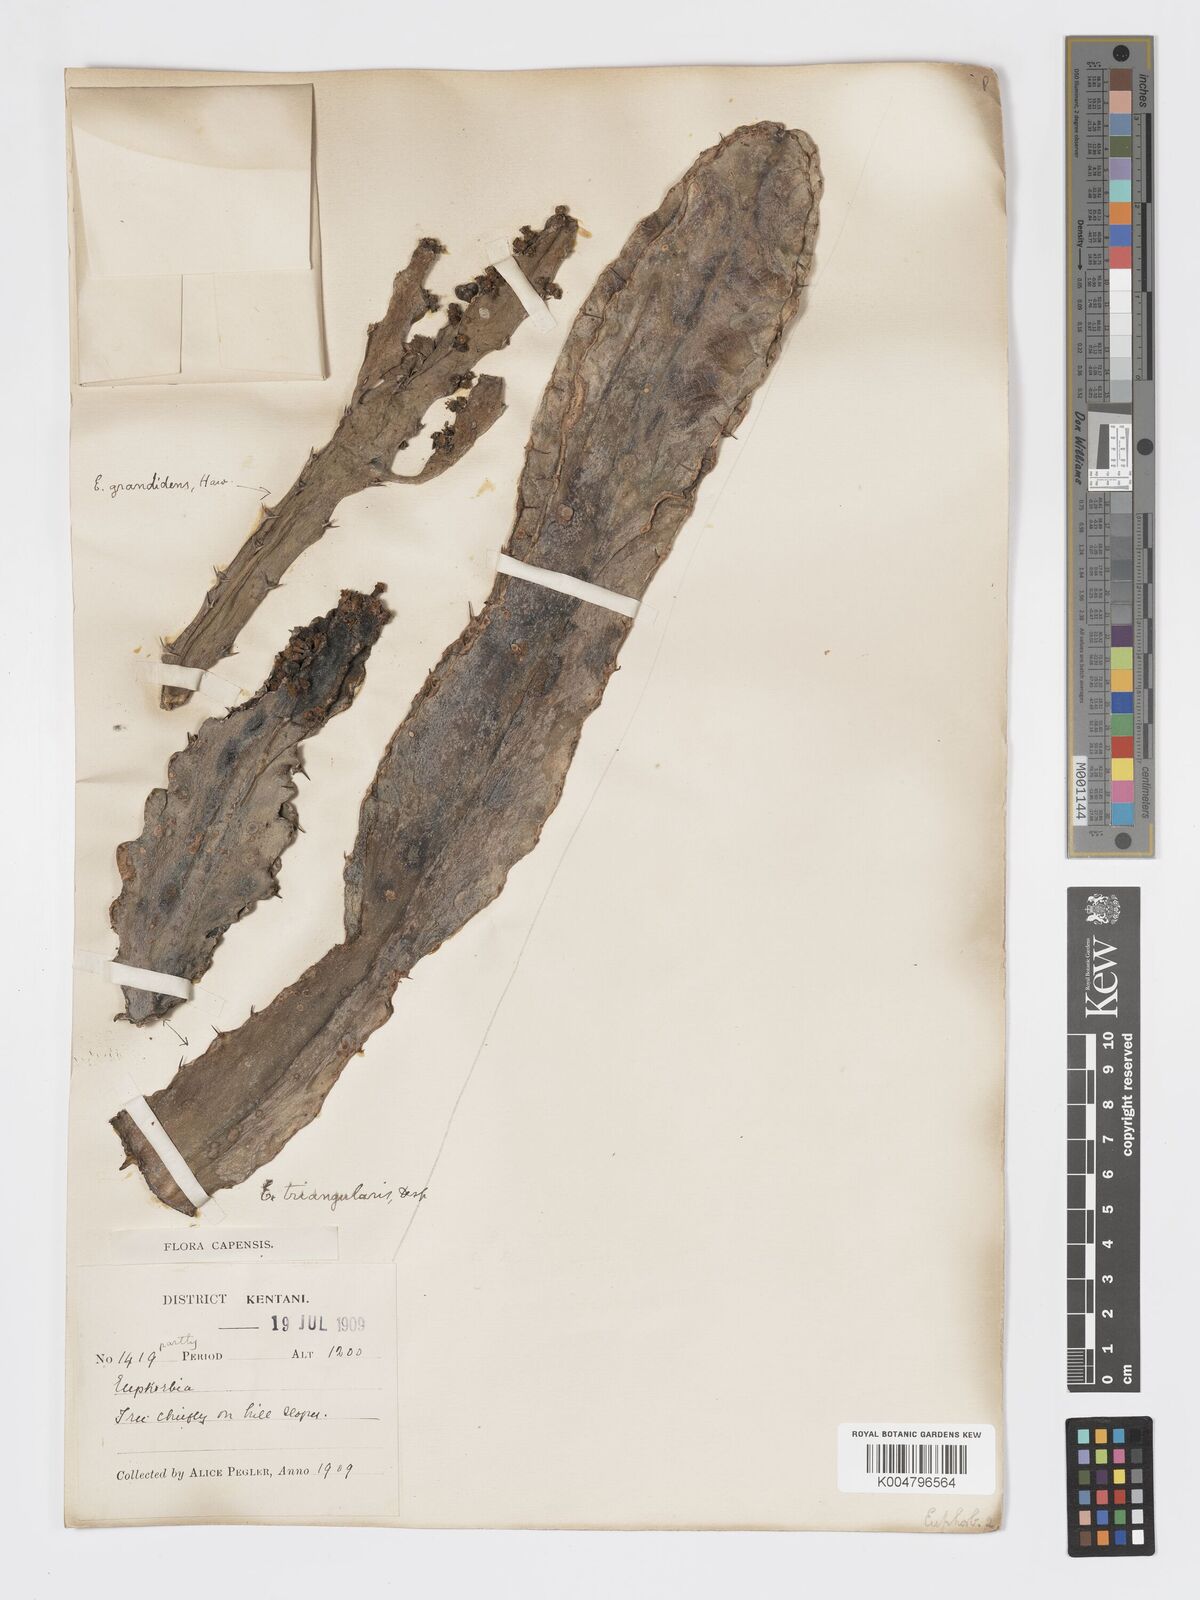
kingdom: Plantae
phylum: Tracheophyta
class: Magnoliopsida
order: Malpighiales
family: Euphorbiaceae
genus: Euphorbia
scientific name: Euphorbia triangularis
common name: Chandelier tree
